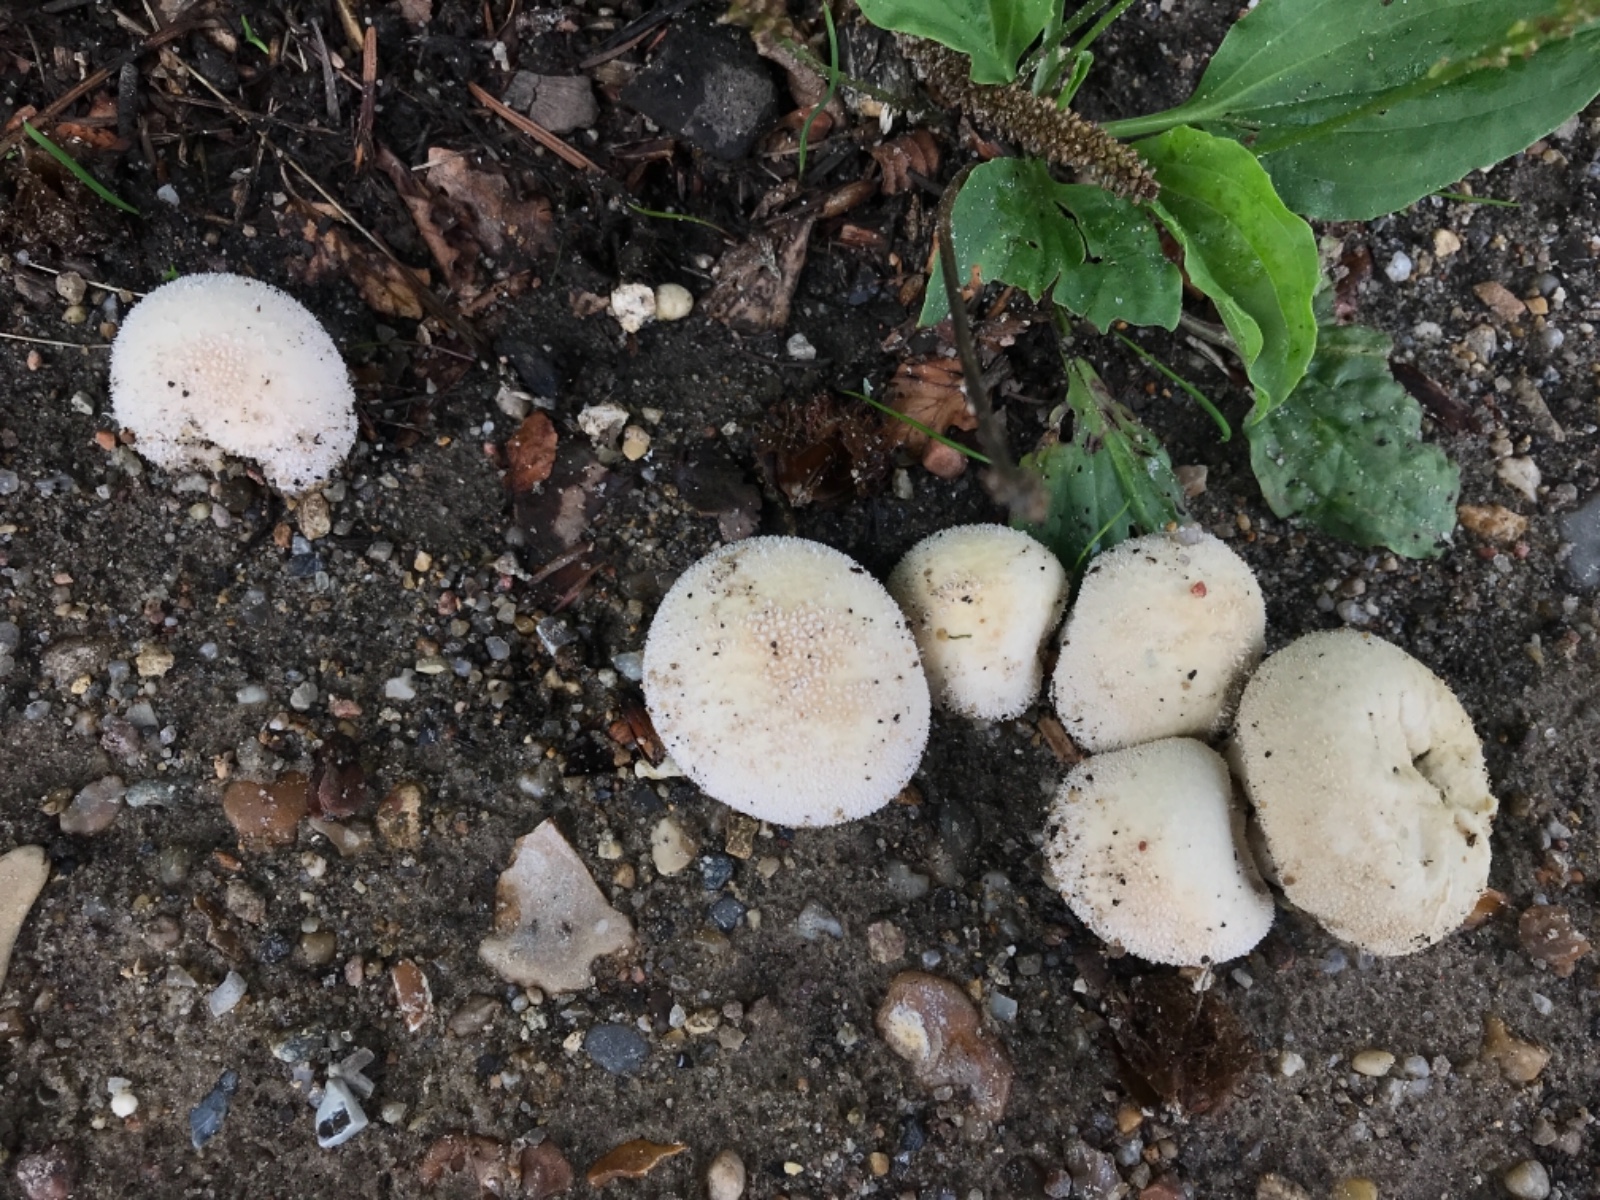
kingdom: Fungi
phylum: Basidiomycota
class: Agaricomycetes
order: Agaricales
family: Lycoperdaceae
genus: Lycoperdon
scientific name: Lycoperdon perlatum
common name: krystal-støvbold
